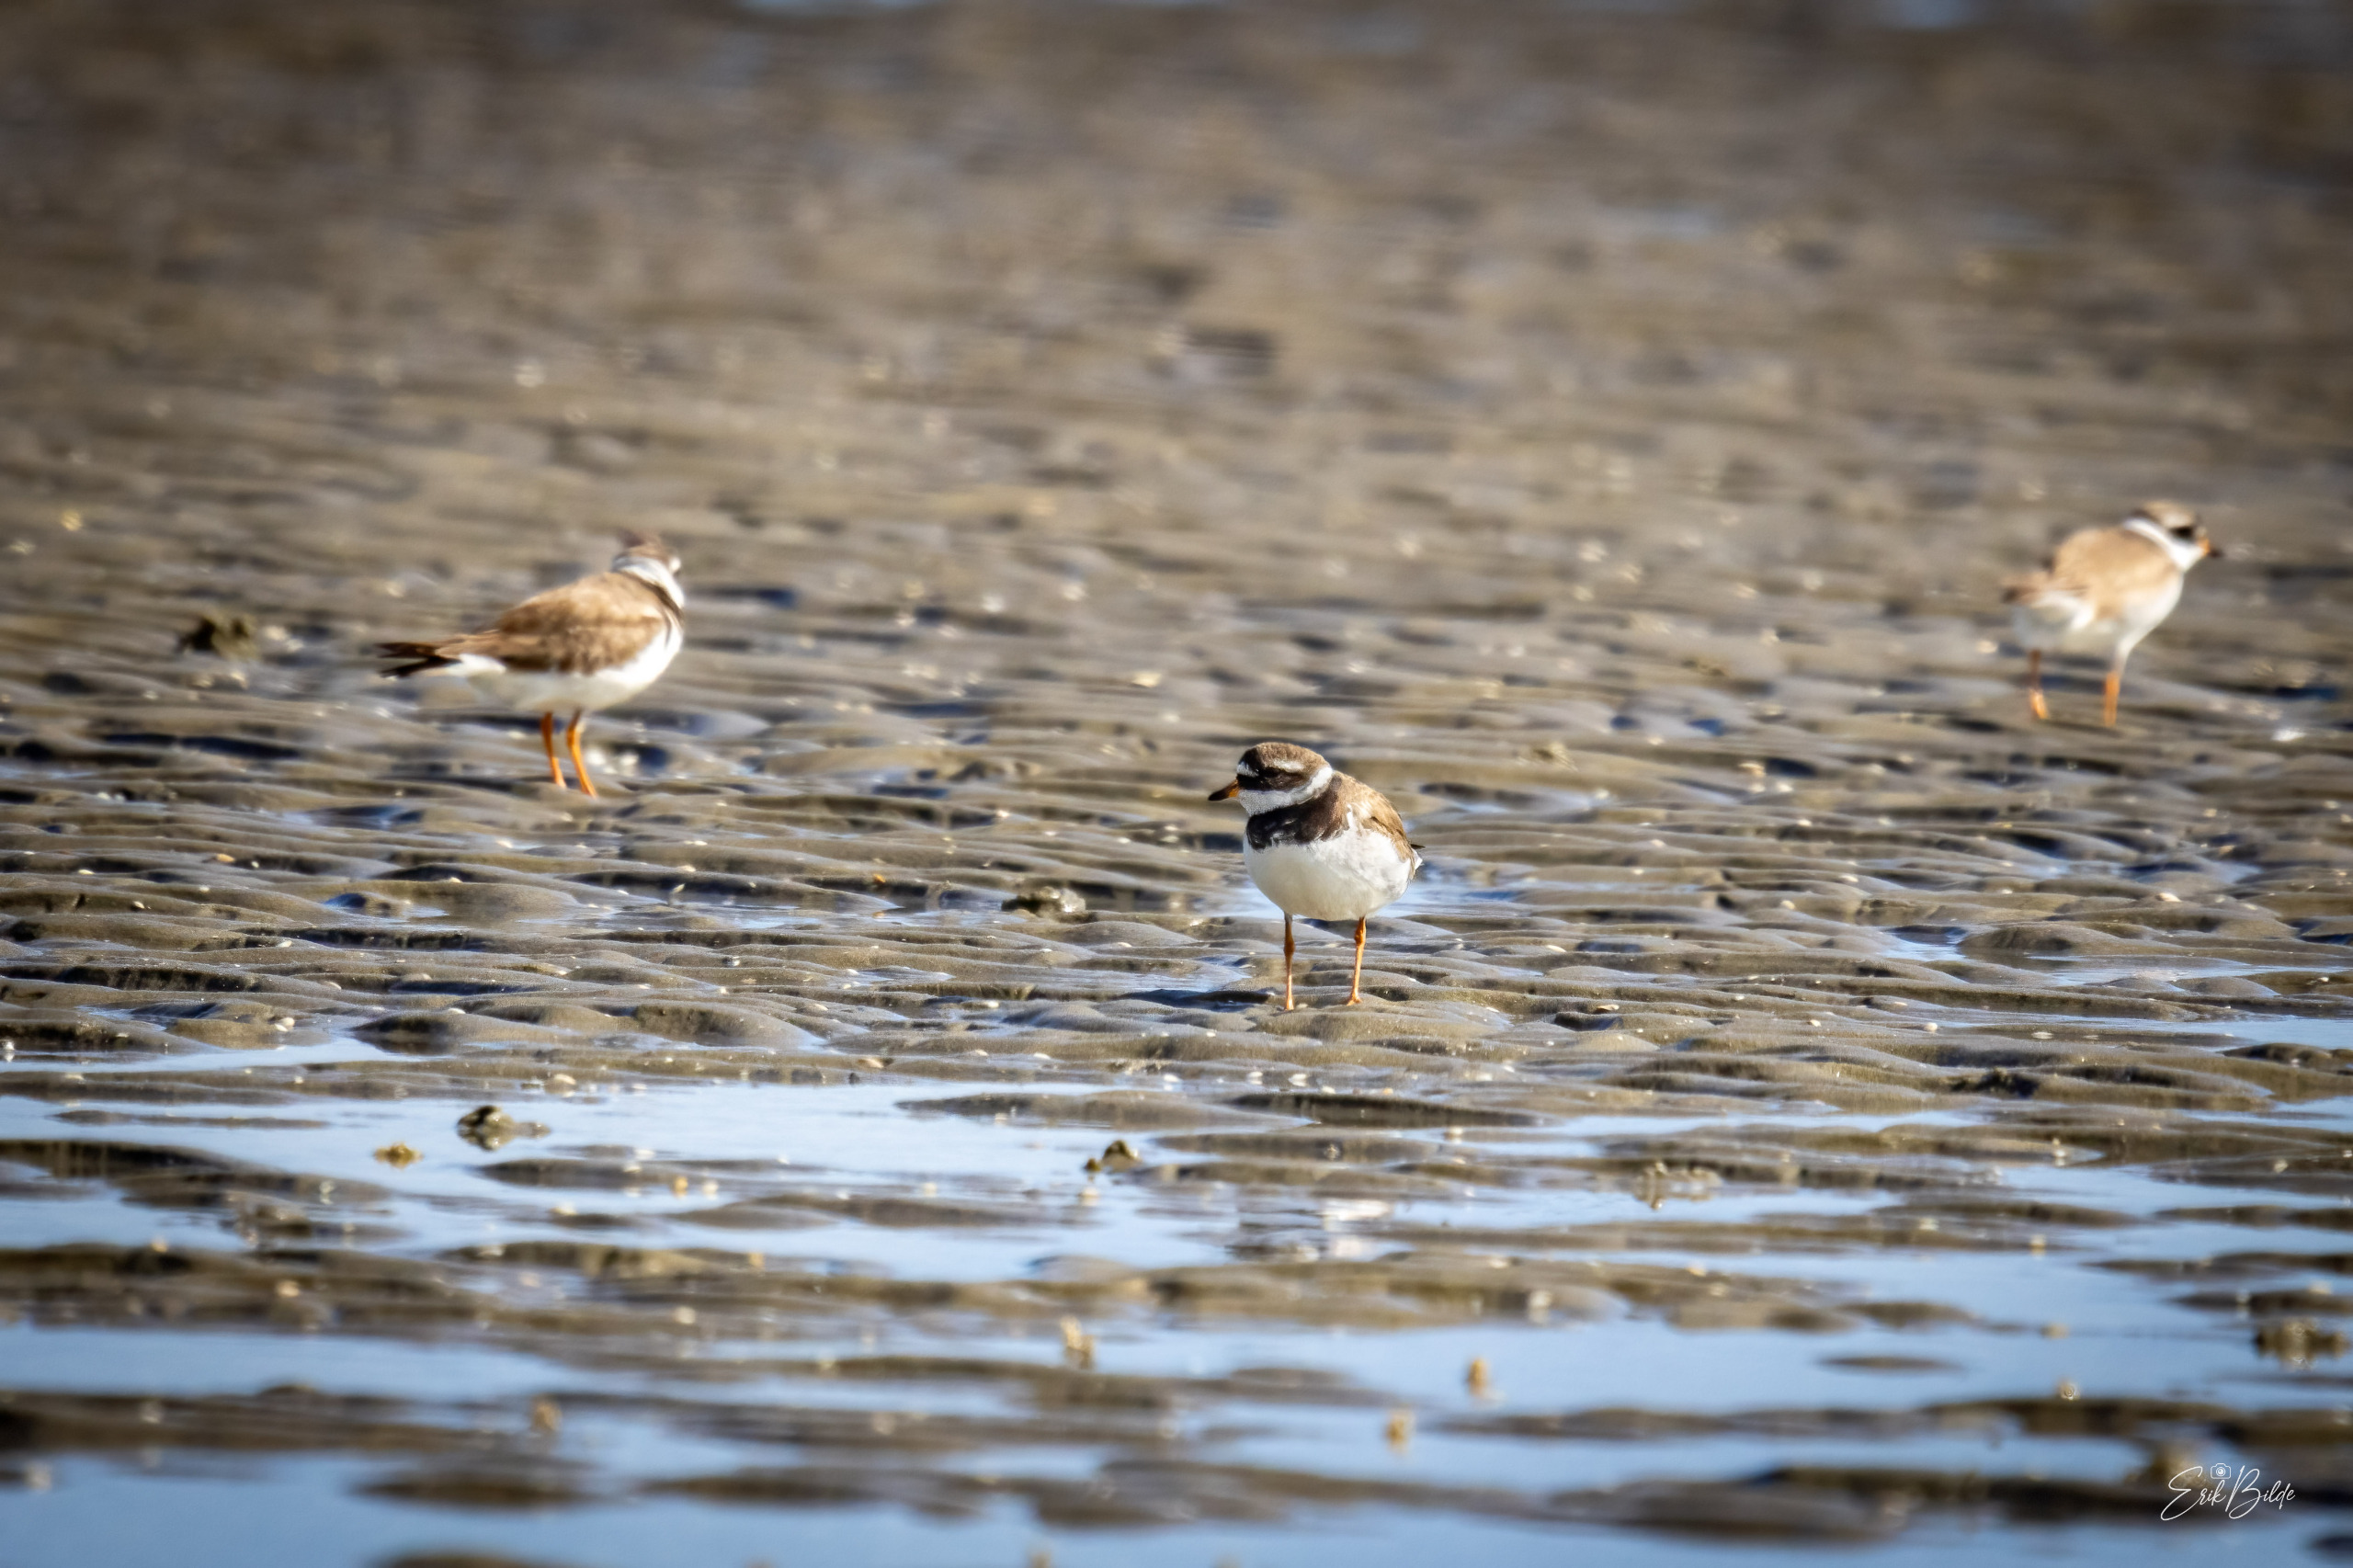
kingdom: Animalia
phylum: Chordata
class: Aves
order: Charadriiformes
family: Charadriidae
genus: Charadrius
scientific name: Charadrius hiaticula
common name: Stor præstekrave
